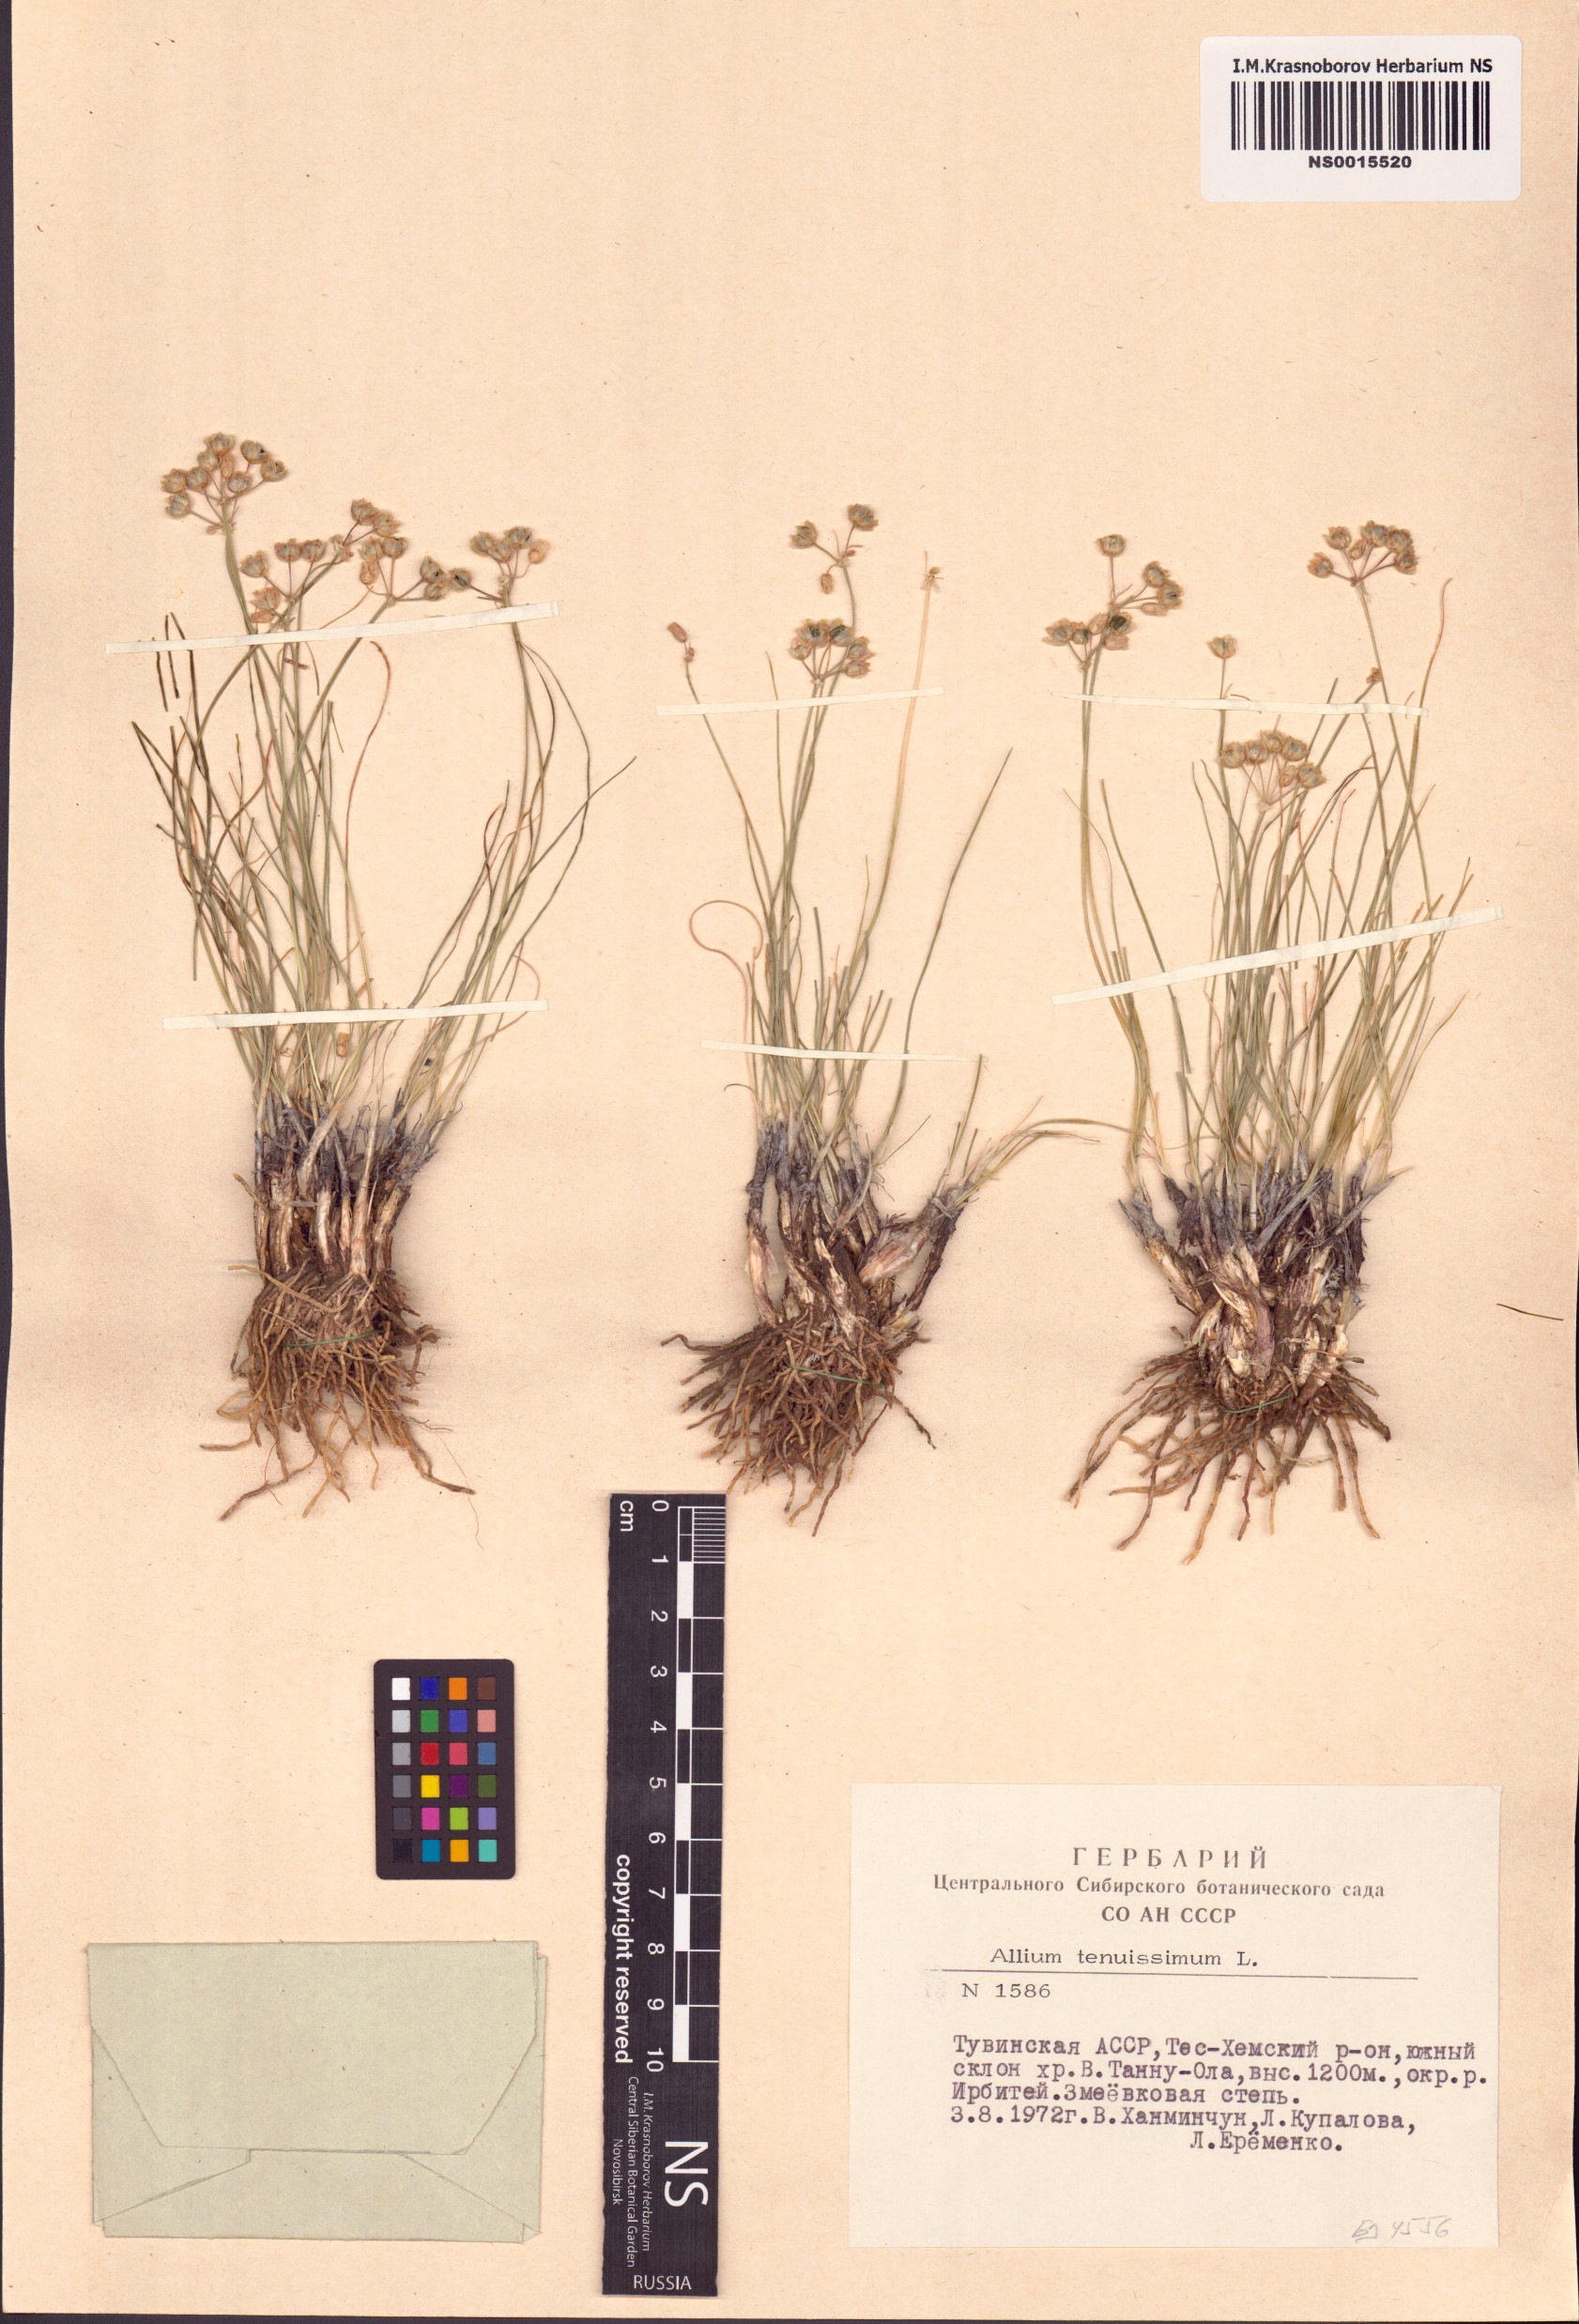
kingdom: Plantae
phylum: Tracheophyta
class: Liliopsida
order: Asparagales
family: Amaryllidaceae
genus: Allium
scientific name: Allium tenuissimum
